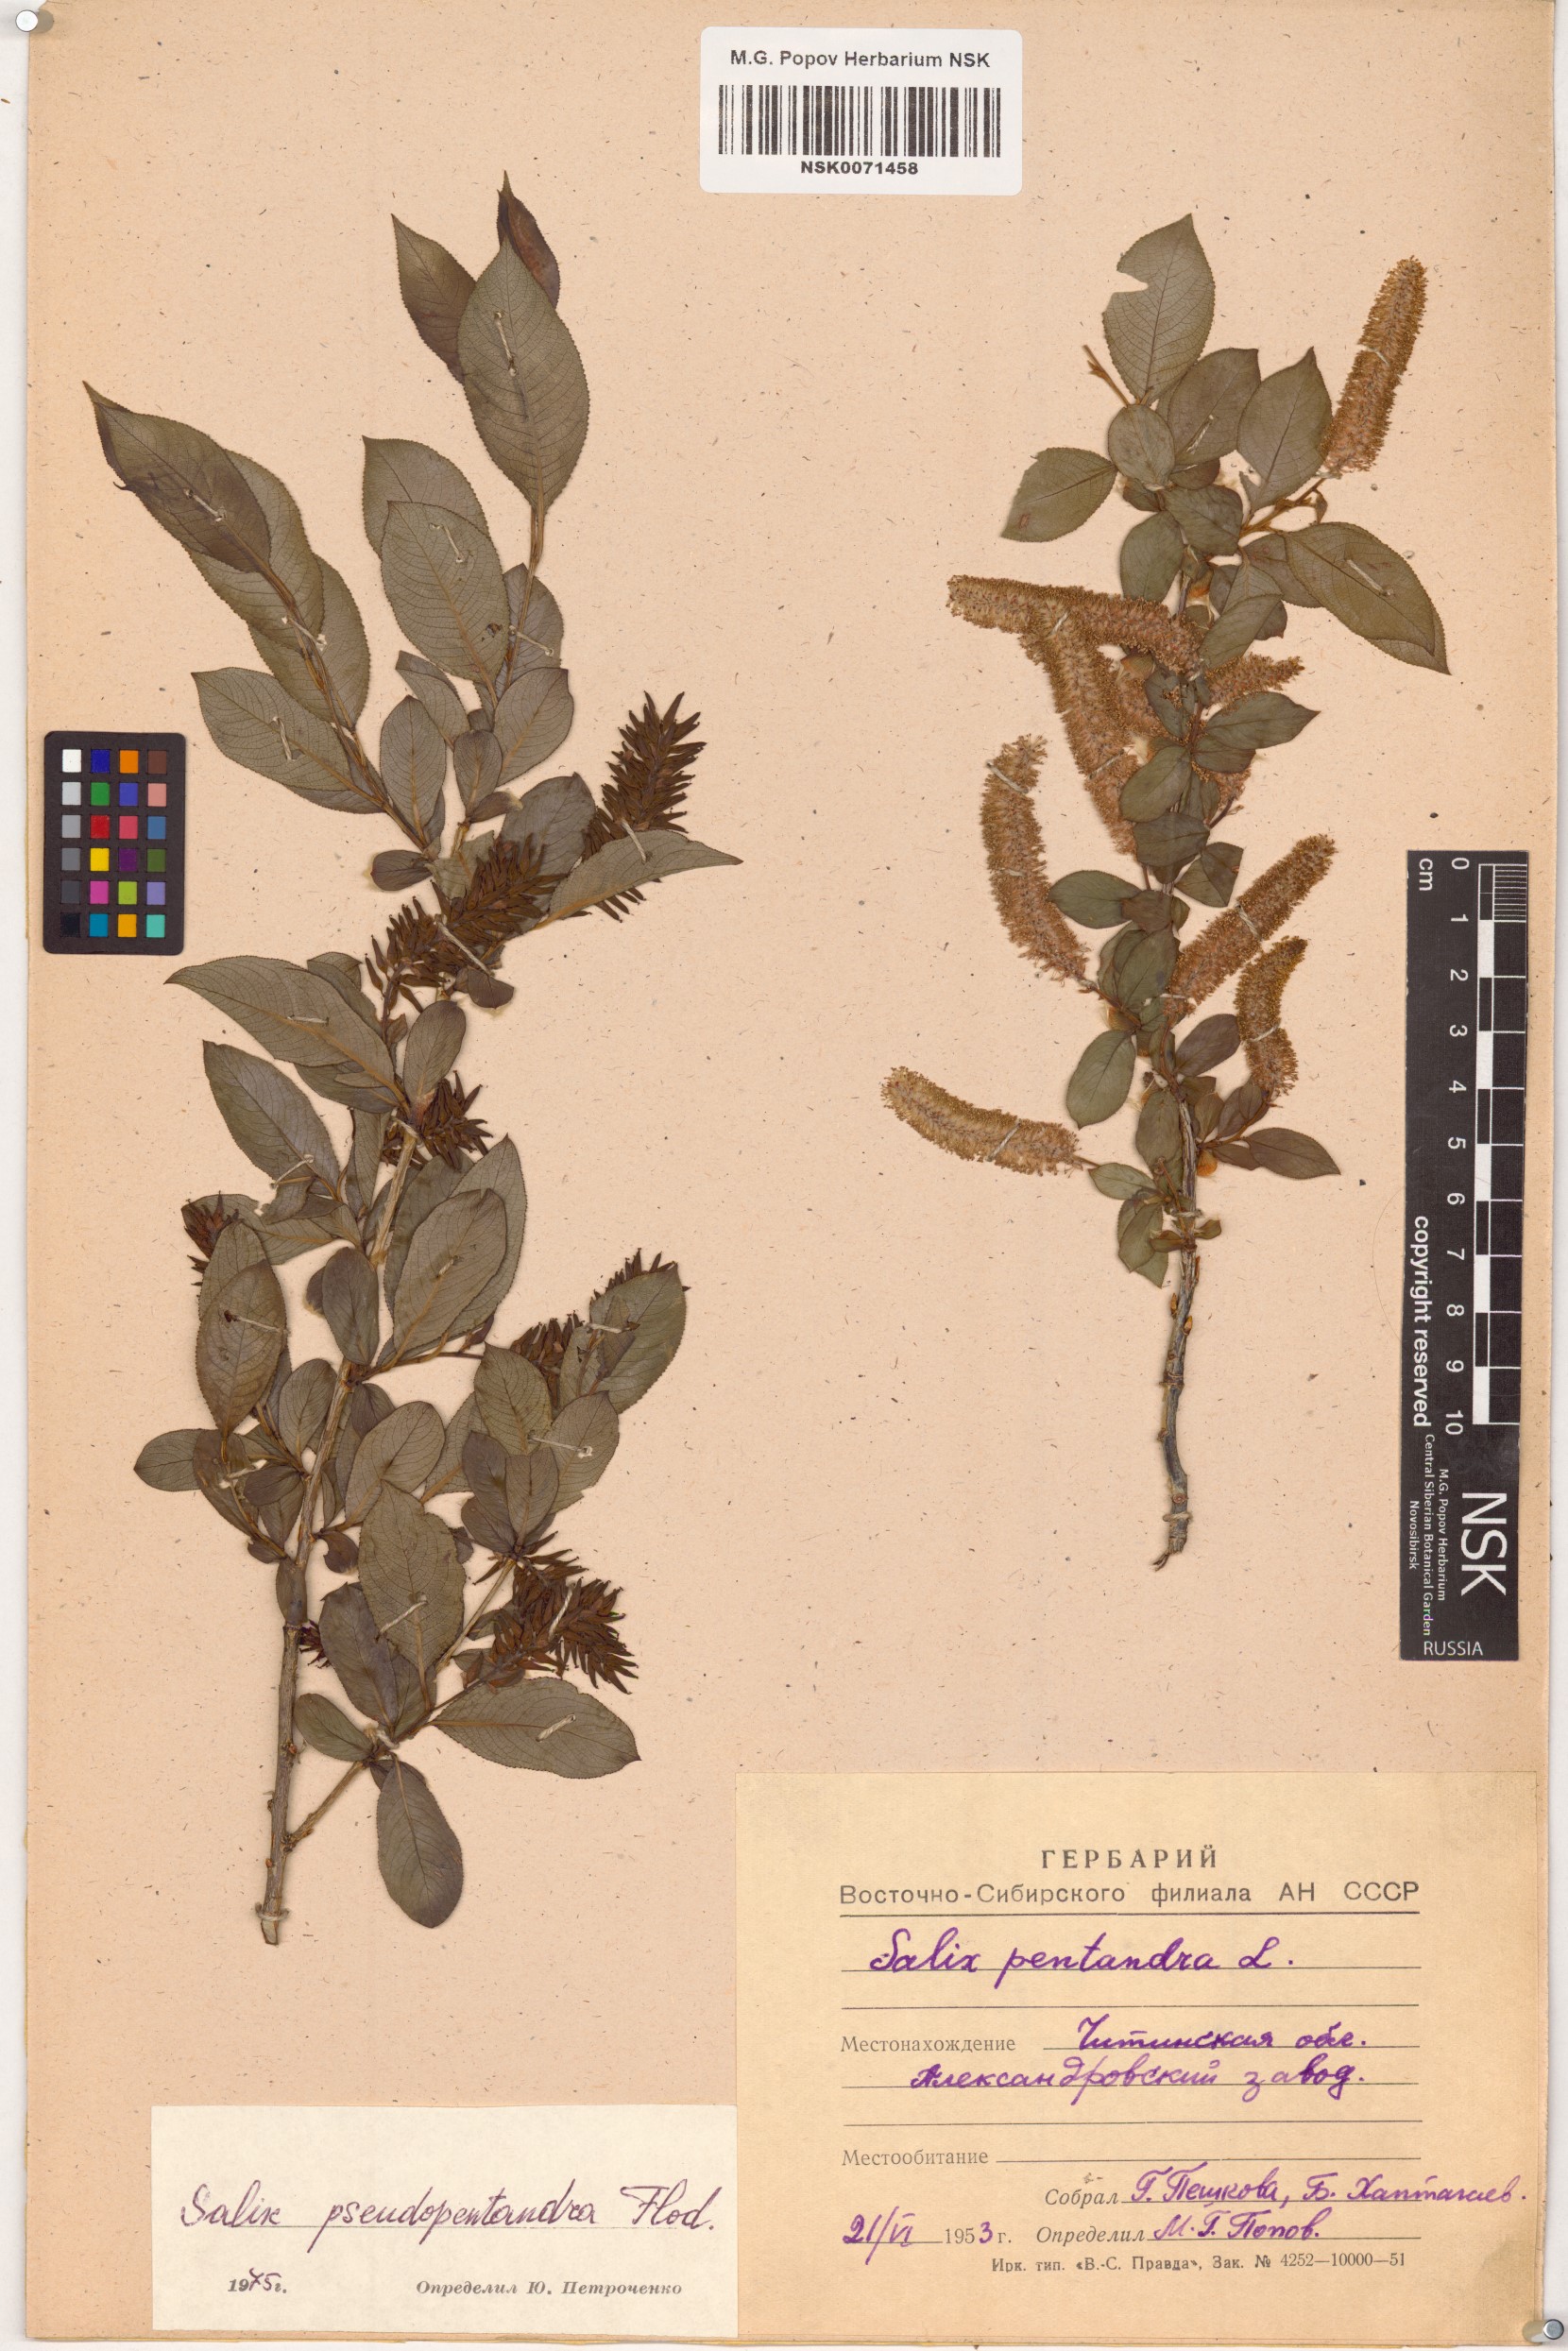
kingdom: Plantae
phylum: Tracheophyta
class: Magnoliopsida
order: Malpighiales
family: Salicaceae
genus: Salix
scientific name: Salix pseudopentandra
